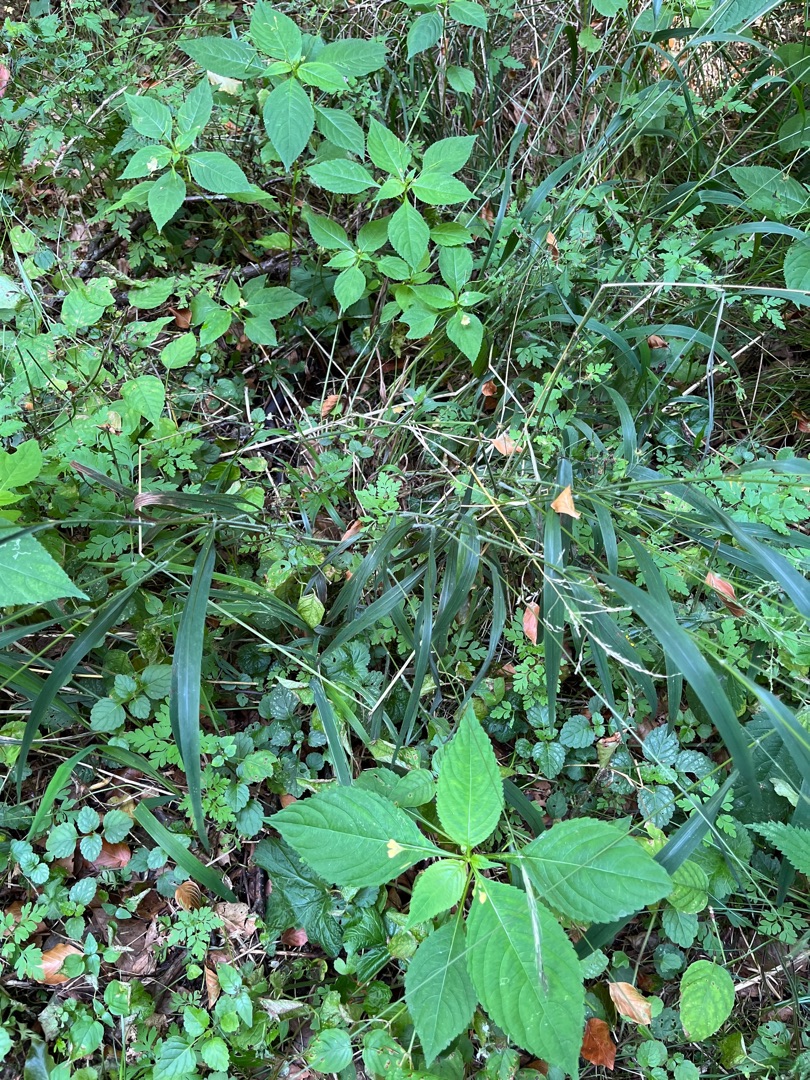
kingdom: Plantae
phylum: Tracheophyta
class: Liliopsida
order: Poales
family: Poaceae
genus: Brachypodium
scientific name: Brachypodium sylvaticum
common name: Skov-stilkaks
